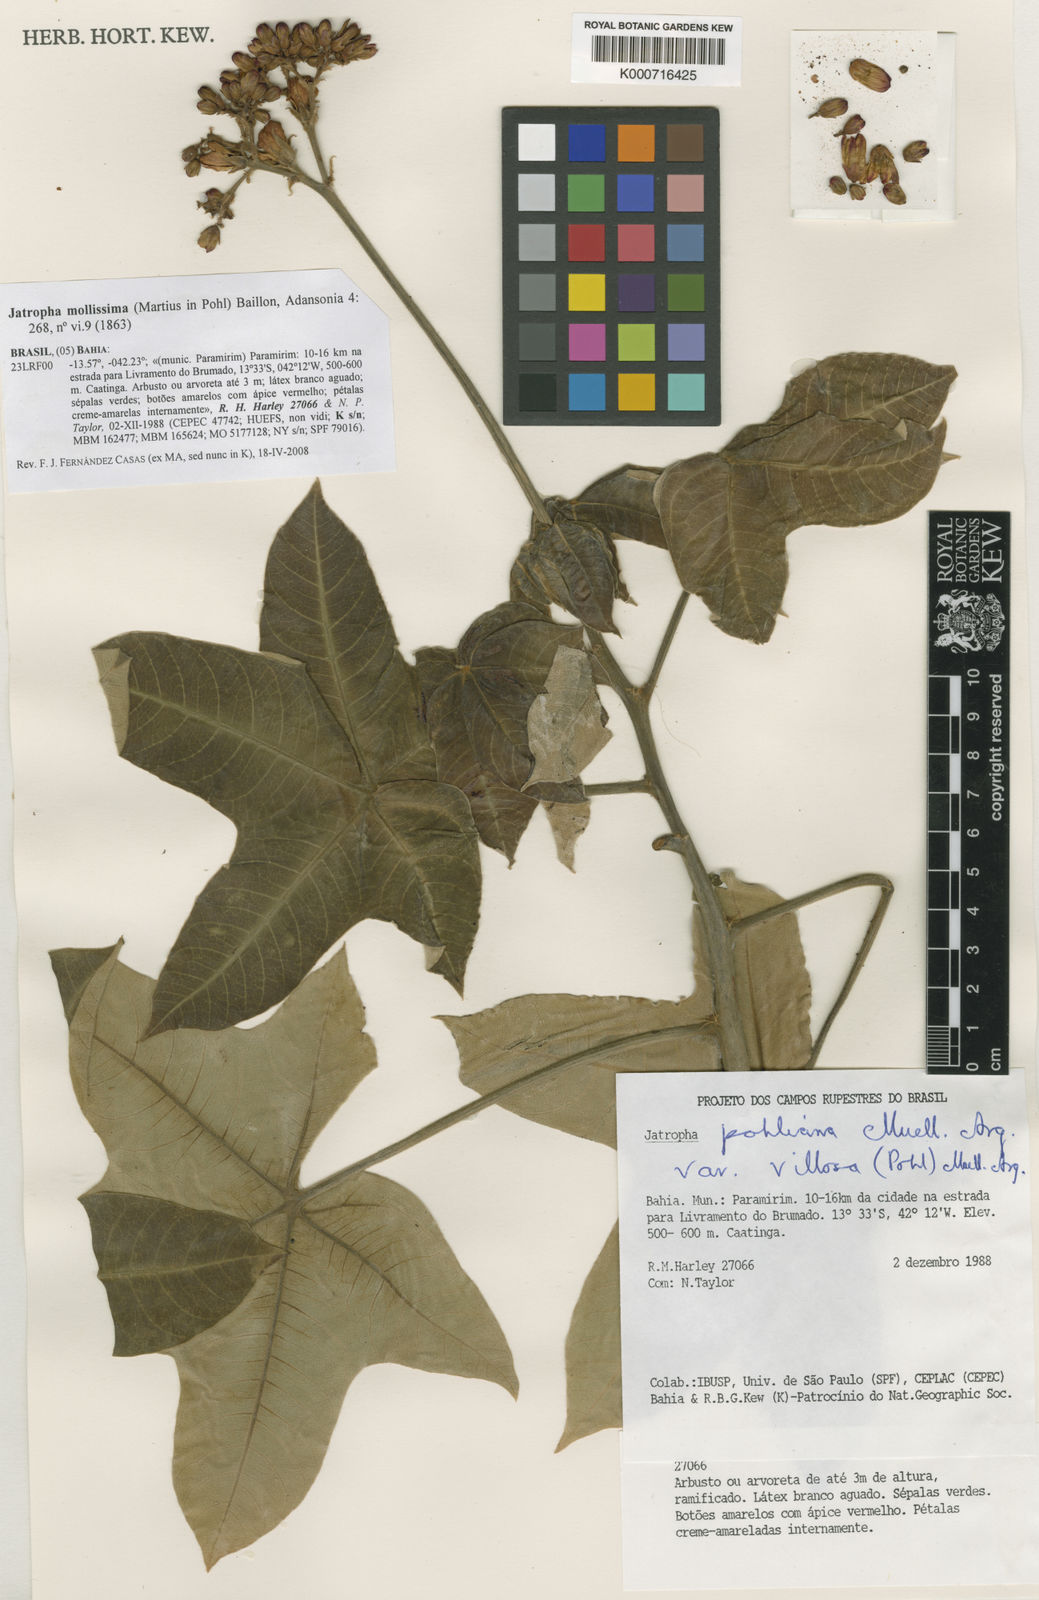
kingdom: Plantae
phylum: Tracheophyta
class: Magnoliopsida
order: Malpighiales
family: Euphorbiaceae
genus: Jatropha
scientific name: Jatropha mollissima
